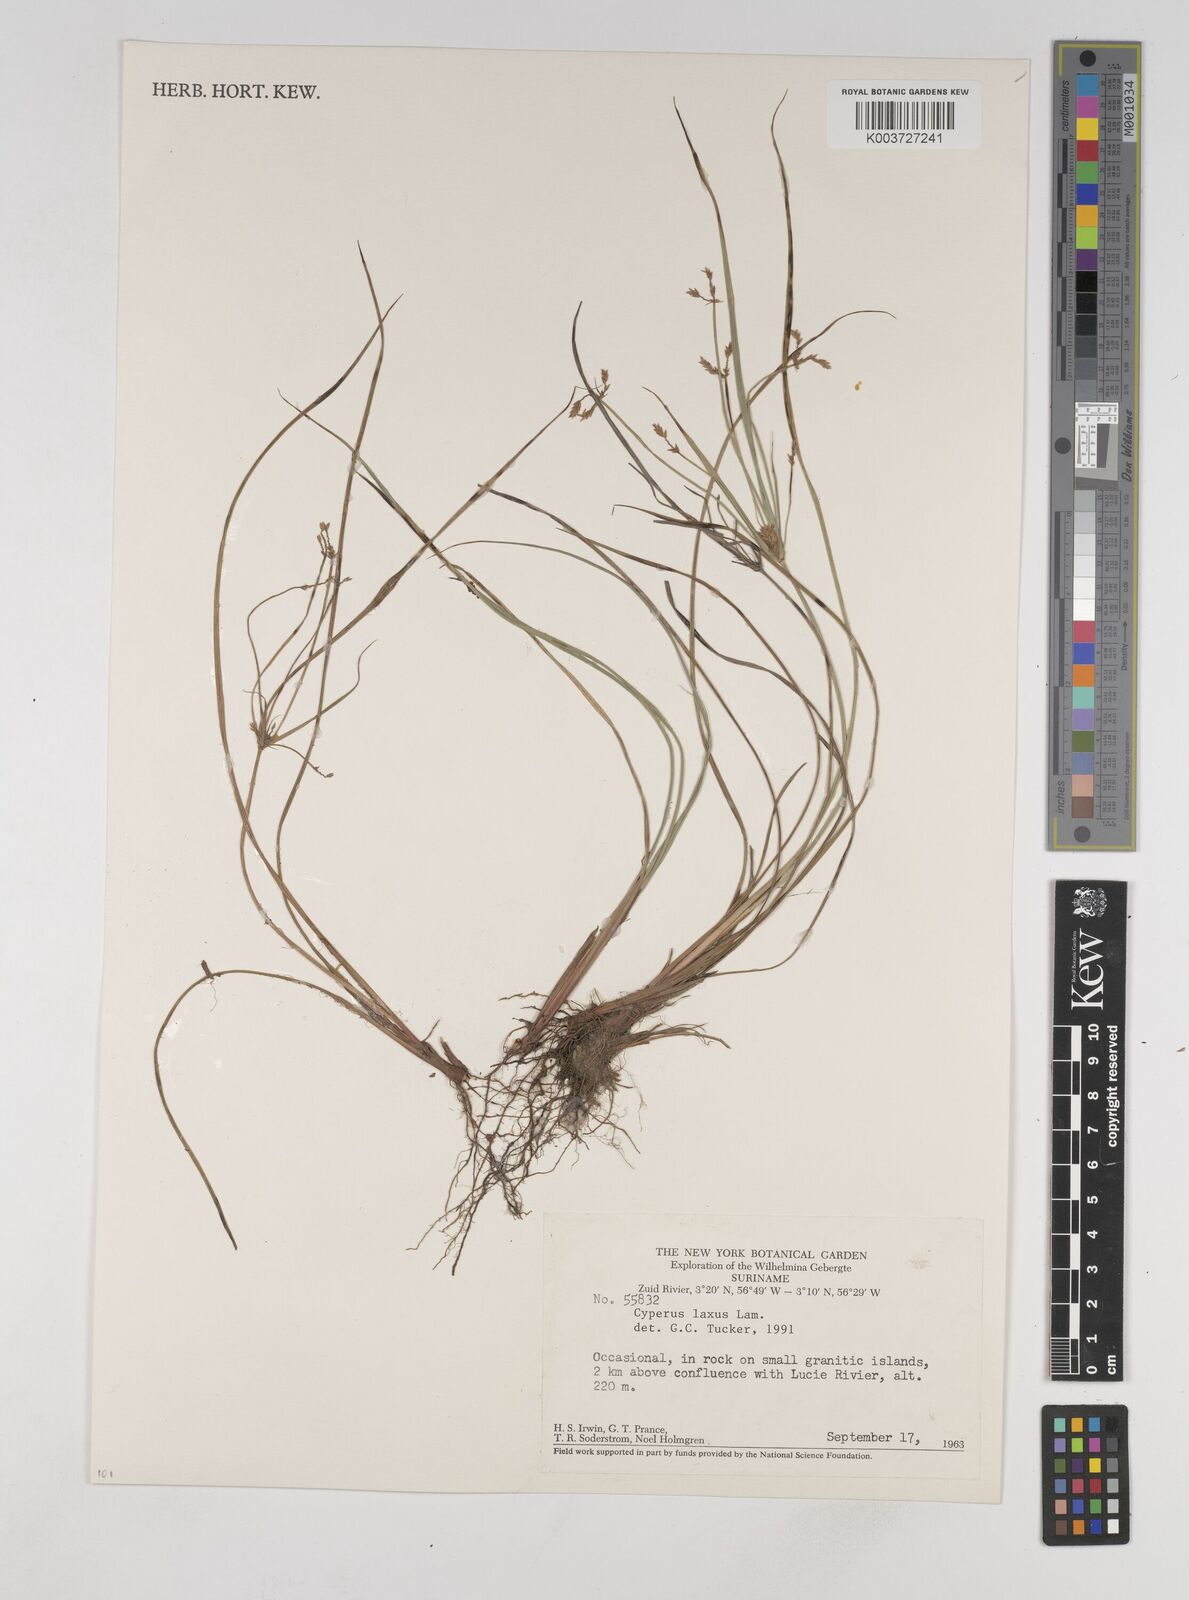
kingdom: Plantae
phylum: Tracheophyta
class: Liliopsida
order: Poales
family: Cyperaceae
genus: Cyperus
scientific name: Cyperus elegans
